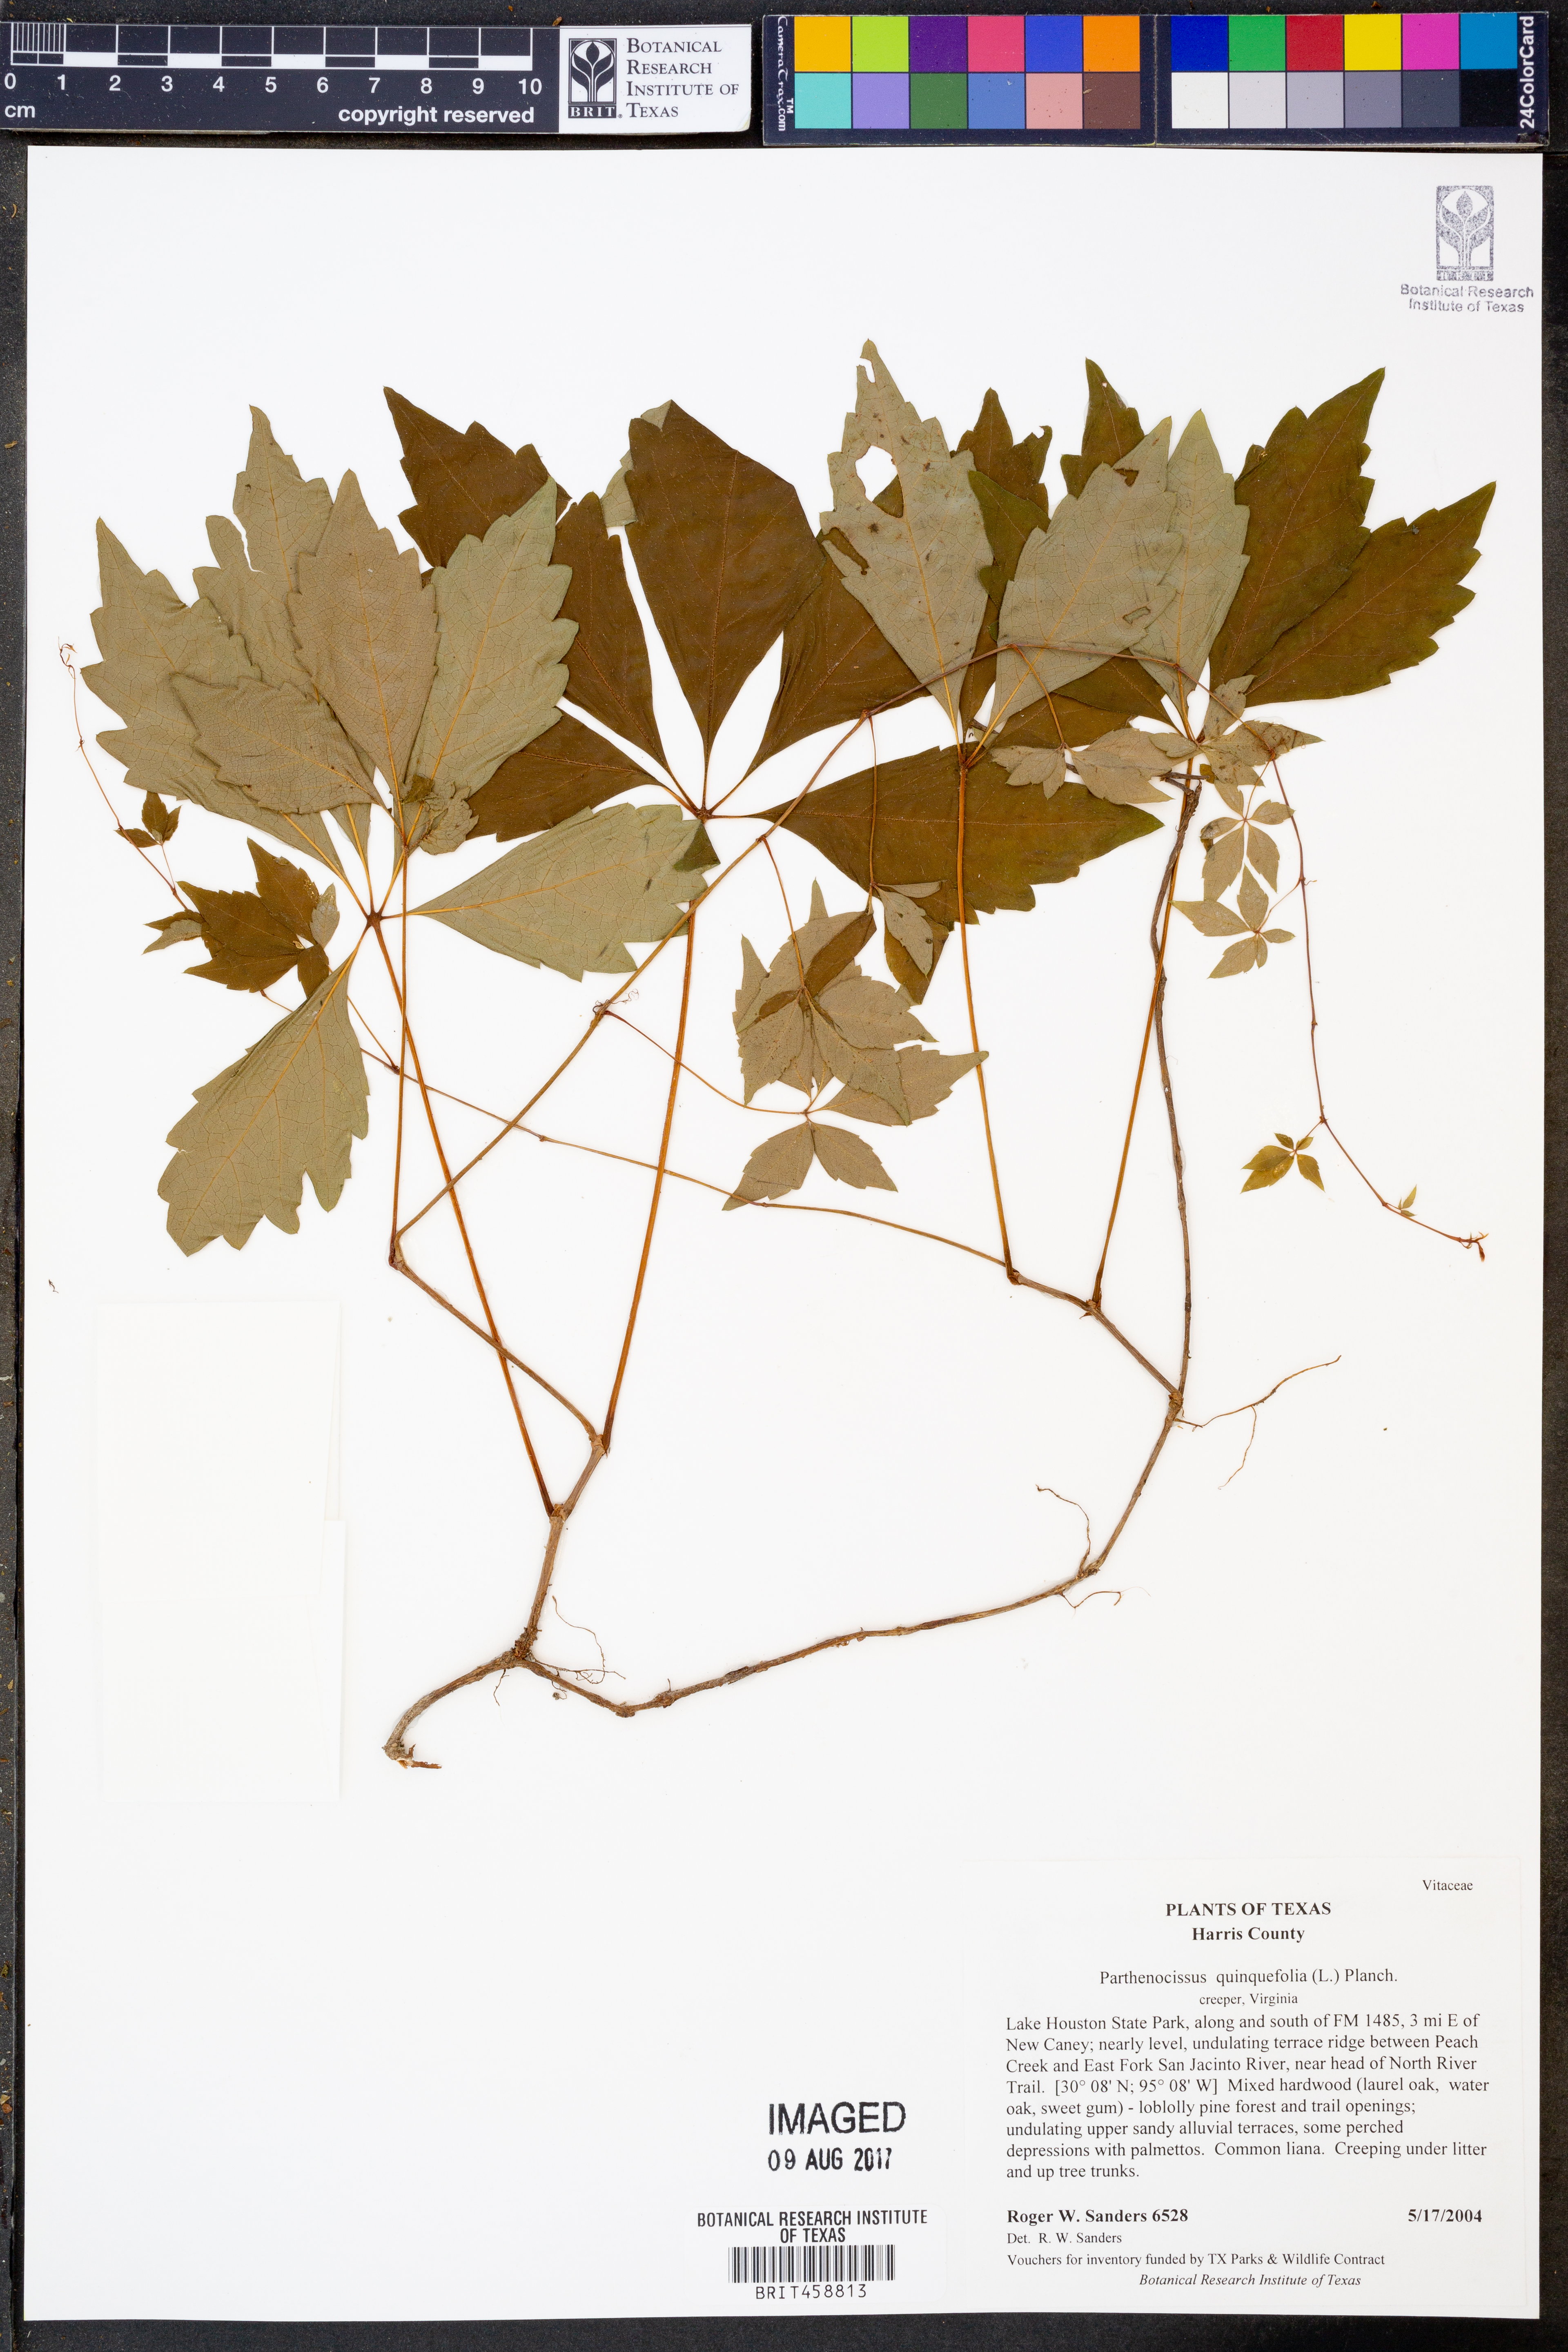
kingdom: Plantae
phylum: Tracheophyta
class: Magnoliopsida
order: Vitales
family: Vitaceae
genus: Parthenocissus
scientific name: Parthenocissus quinquefolia
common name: Virginia-creeper
